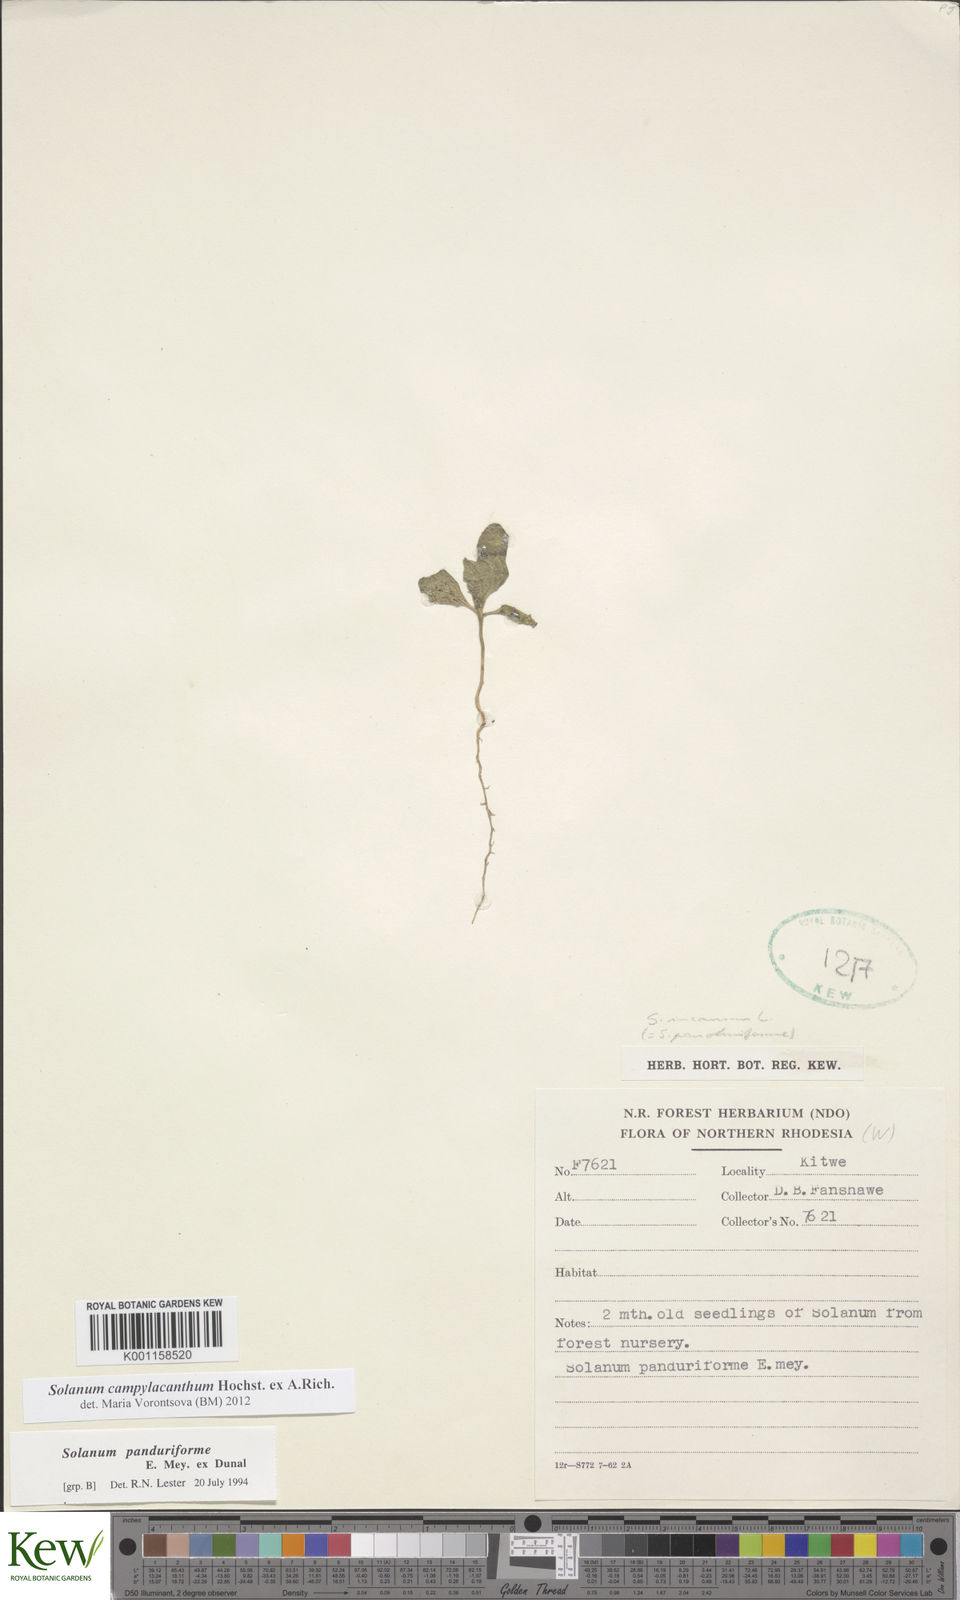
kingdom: Plantae
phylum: Tracheophyta
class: Magnoliopsida
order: Solanales
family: Solanaceae
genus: Solanum
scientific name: Solanum campylacanthum
